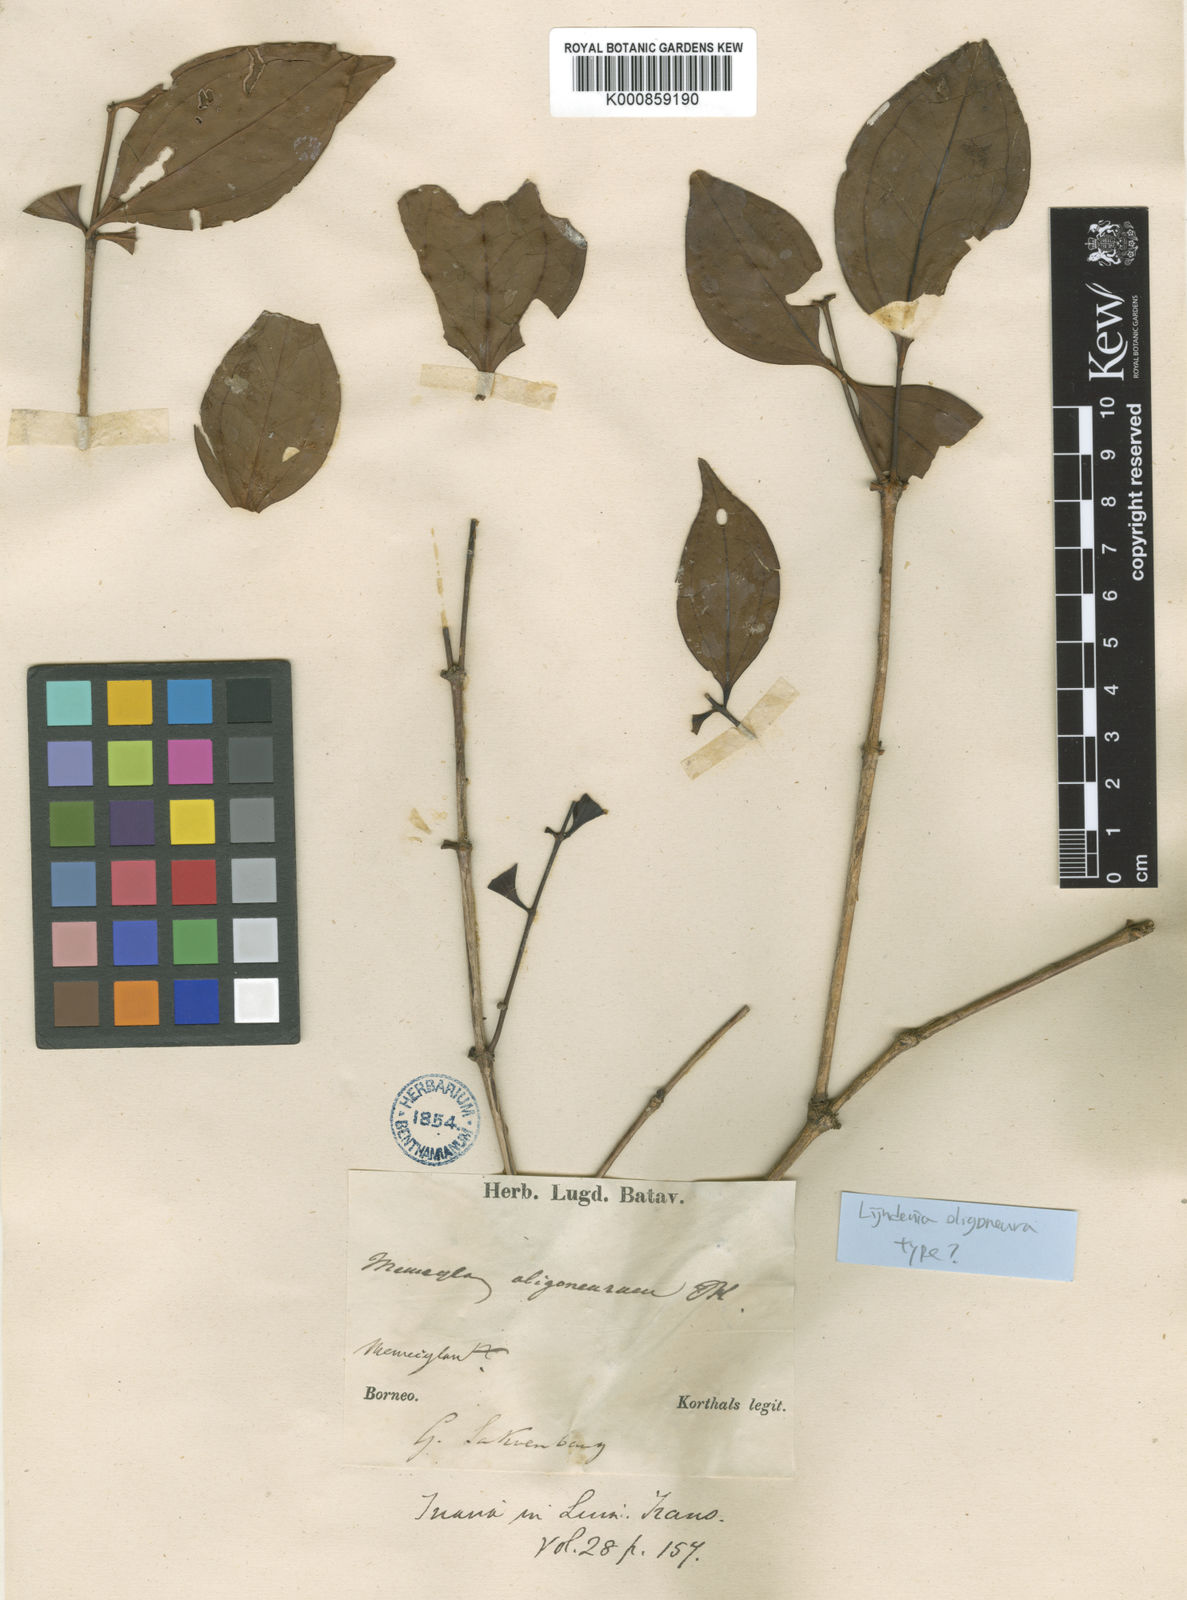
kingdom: Plantae
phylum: Tracheophyta
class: Magnoliopsida
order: Myrtales
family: Melastomataceae
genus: Lijndenia
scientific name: Lijndenia laurina
